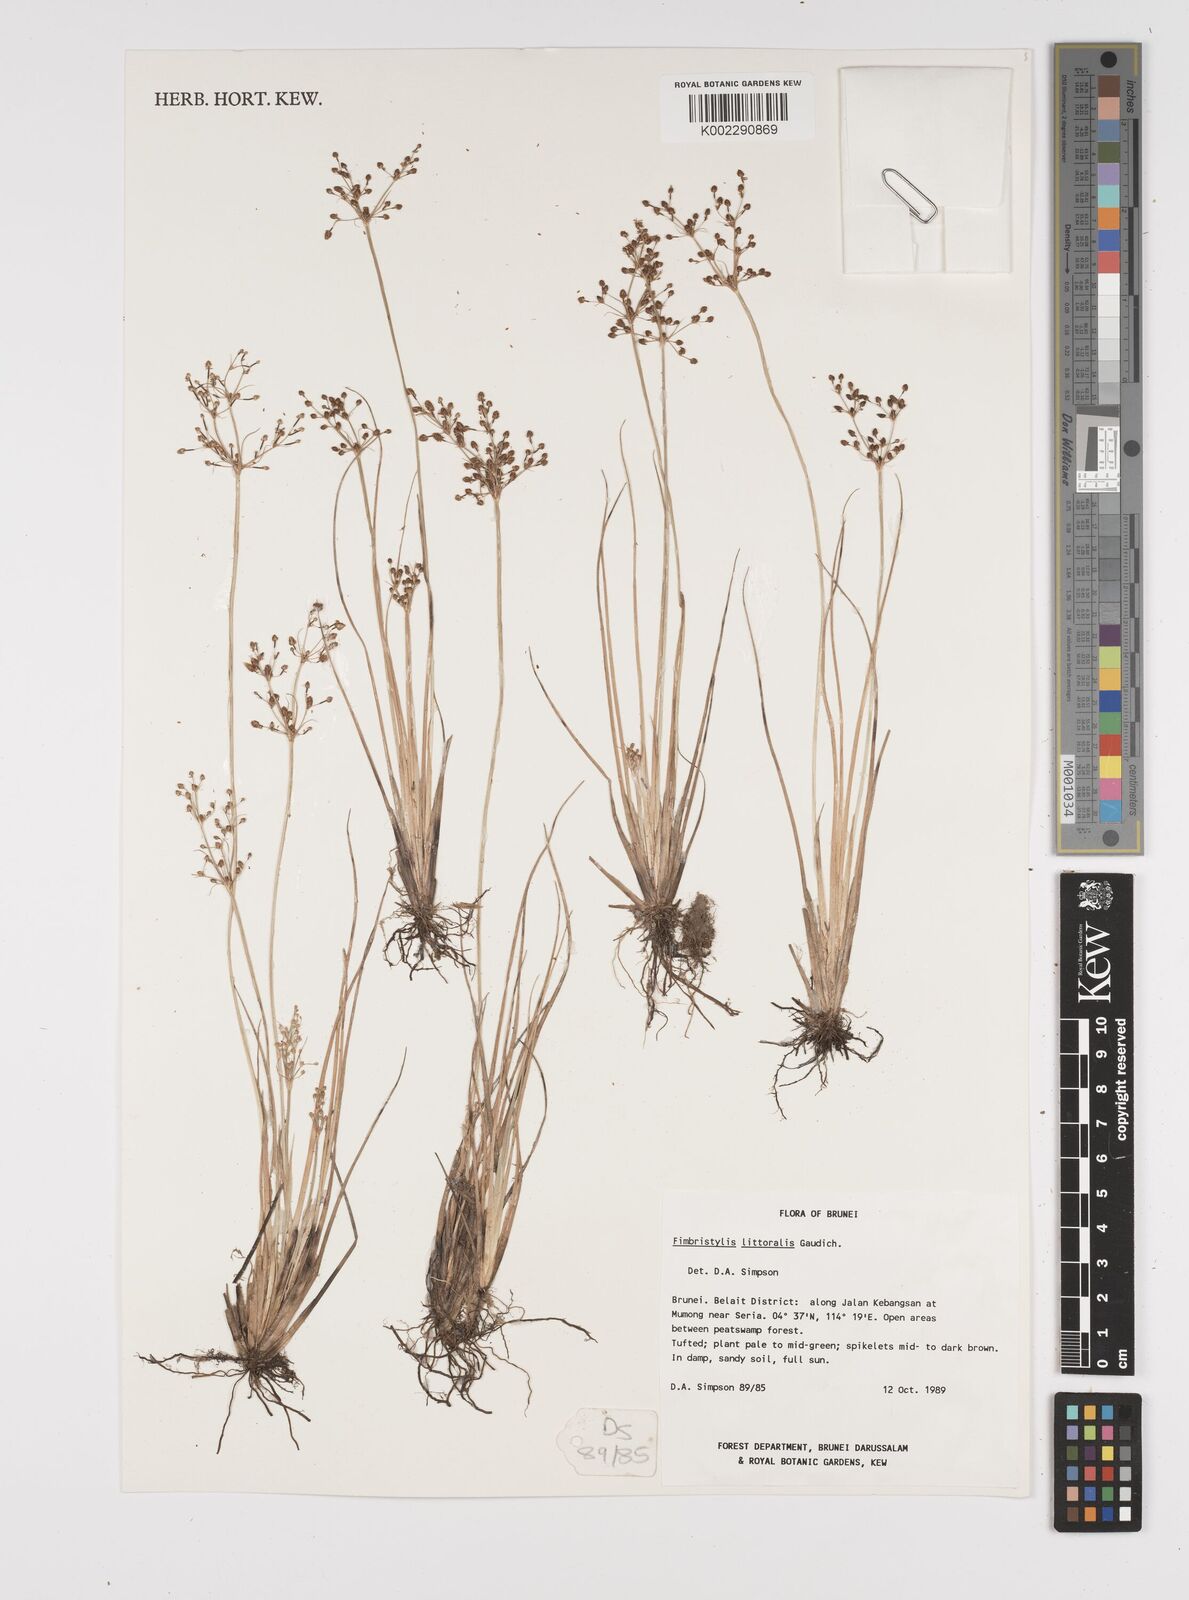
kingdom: Plantae
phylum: Tracheophyta
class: Liliopsida
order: Poales
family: Cyperaceae
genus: Fimbristylis
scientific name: Fimbristylis littoralis
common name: Fimbry
